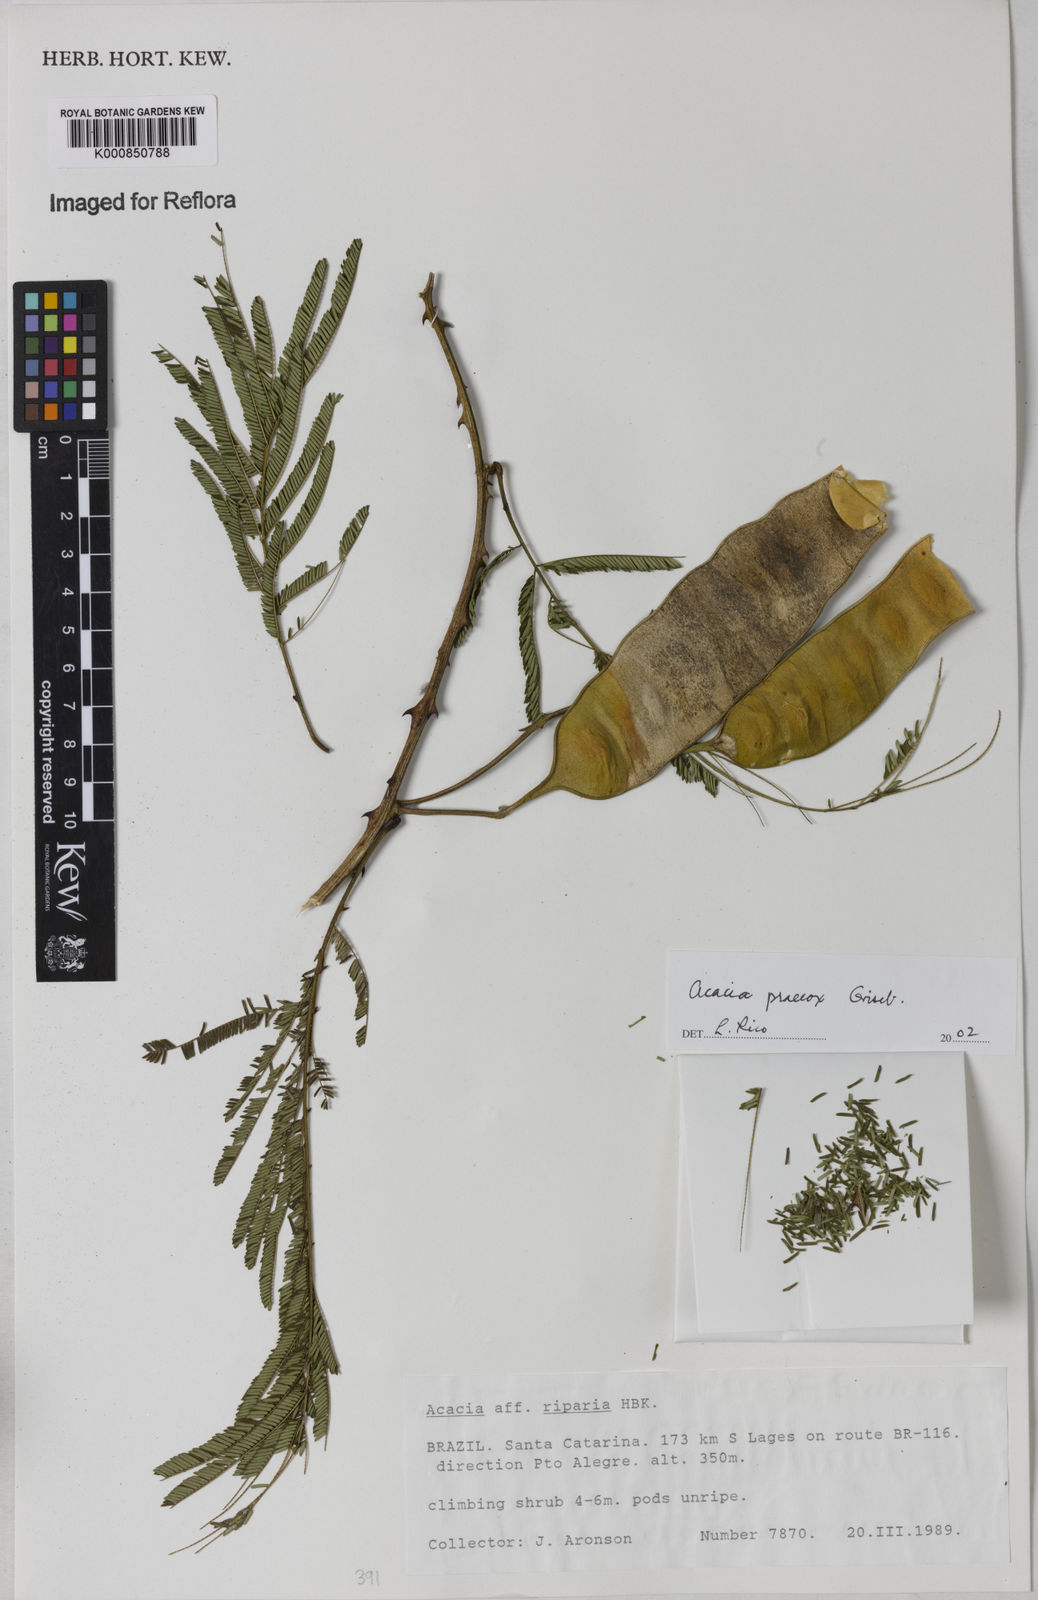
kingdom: Plantae
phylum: Tracheophyta
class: Magnoliopsida
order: Fabales
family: Fabaceae
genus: Senegalia
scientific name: Senegalia praecox
